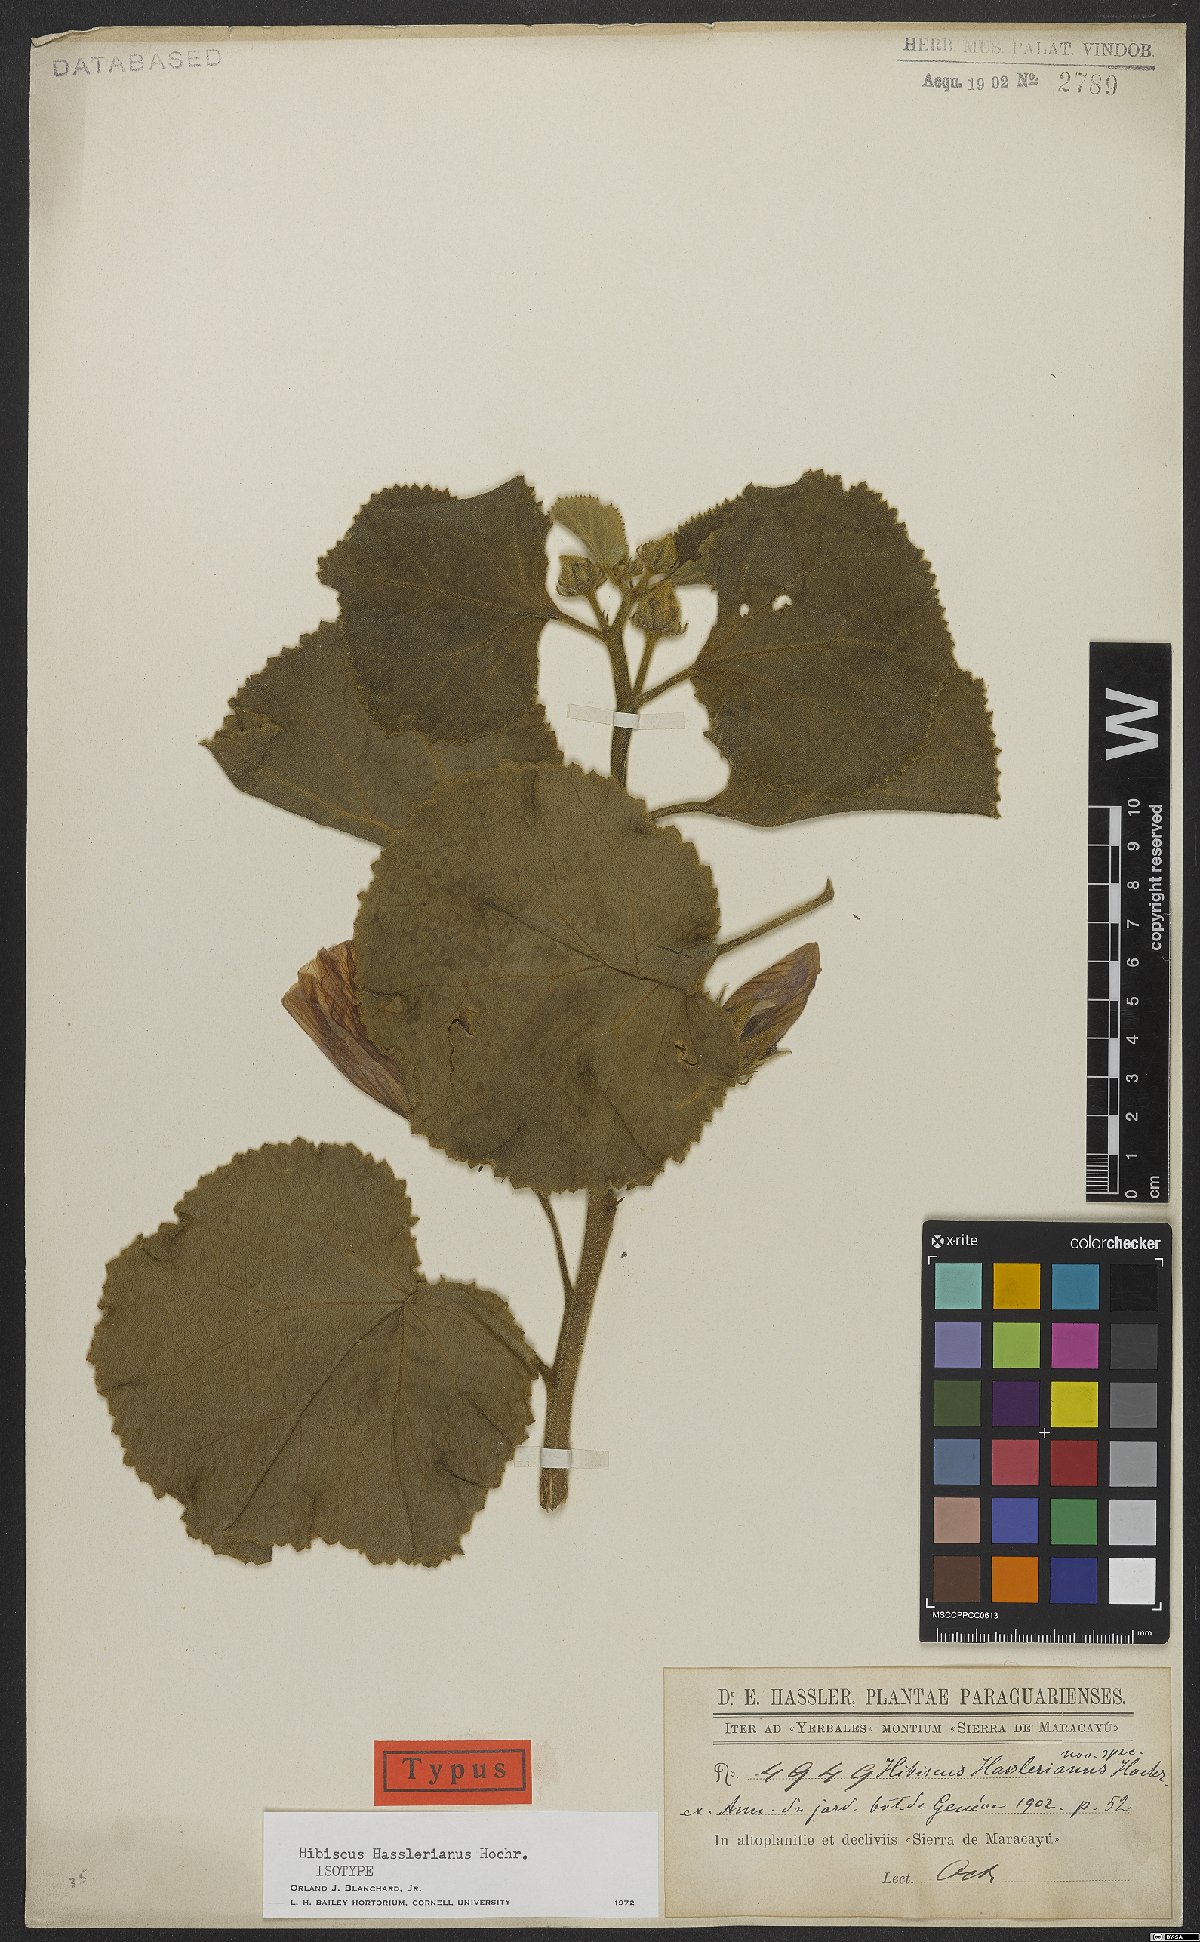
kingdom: Plantae
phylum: Tracheophyta
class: Magnoliopsida
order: Malvales
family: Malvaceae
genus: Hibiscus
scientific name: Hibiscus hasslerianus
